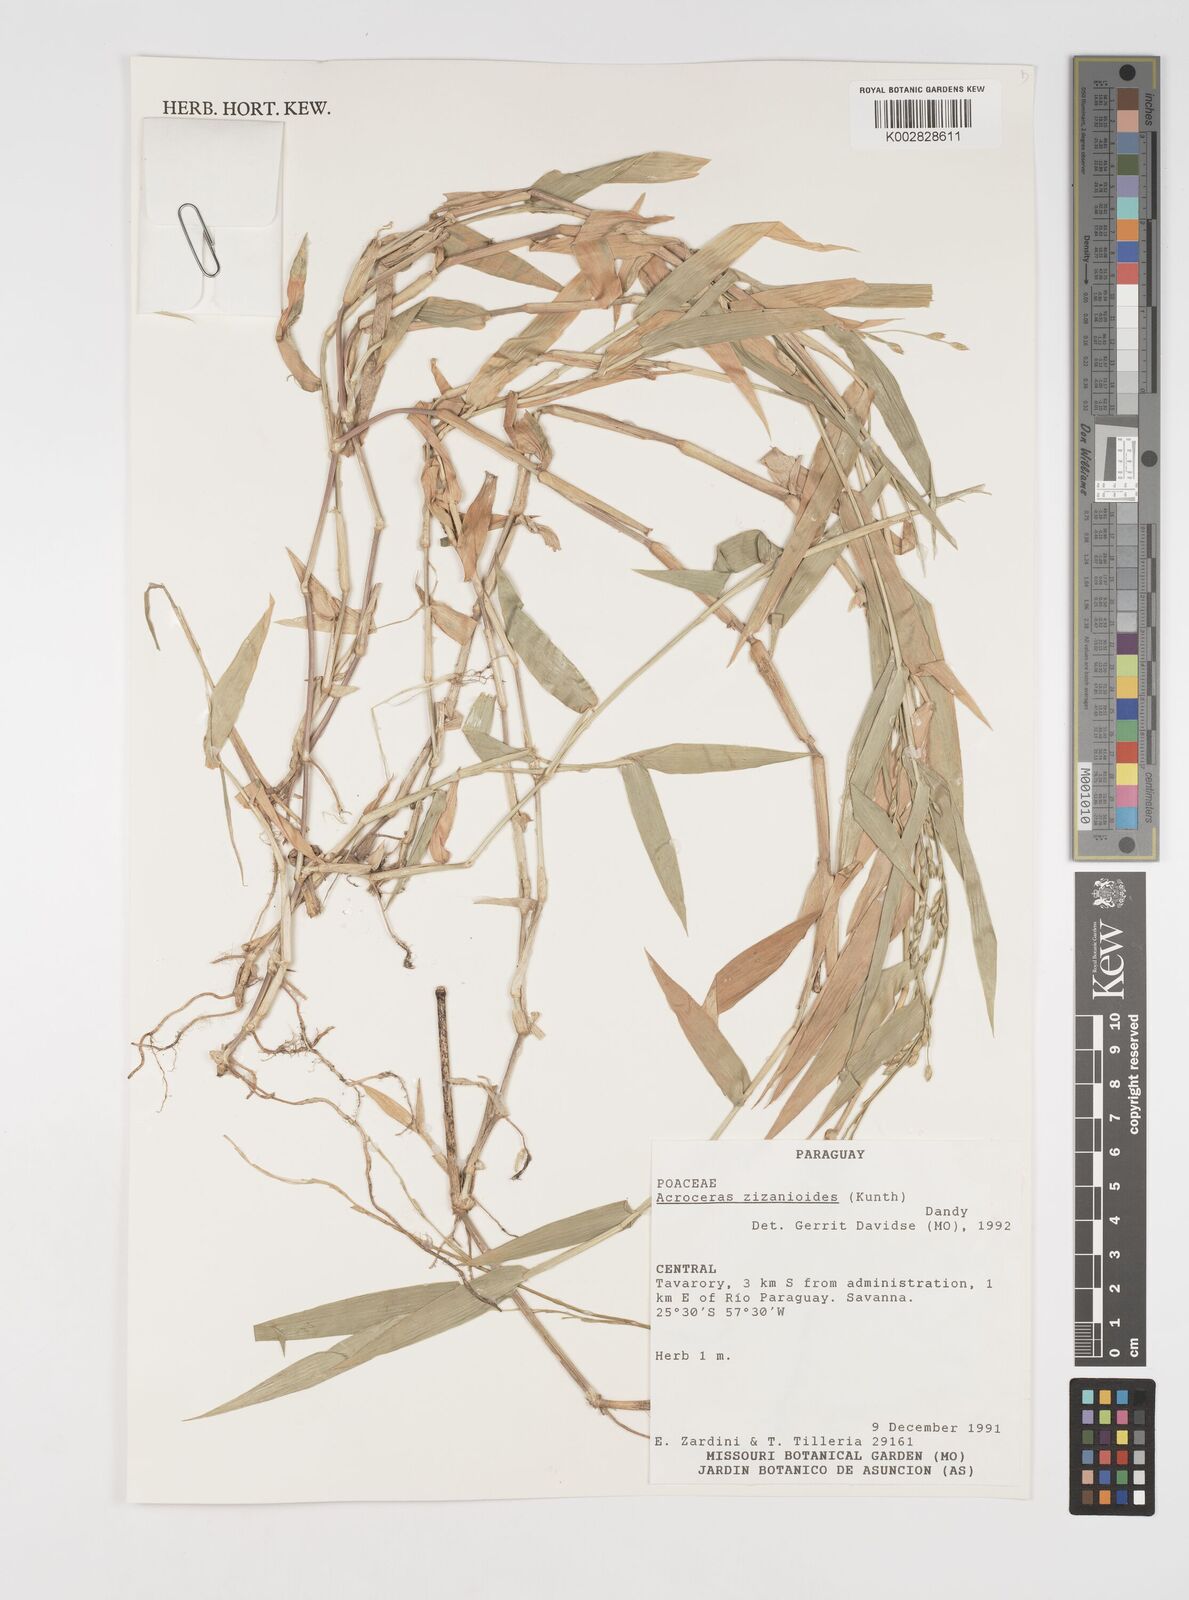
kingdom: Plantae
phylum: Tracheophyta
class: Liliopsida
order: Poales
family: Poaceae
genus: Acroceras
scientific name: Acroceras zizanioides
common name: Oat grass
